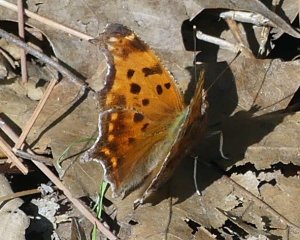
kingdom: Animalia
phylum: Arthropoda
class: Insecta
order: Lepidoptera
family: Nymphalidae
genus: Polygonia
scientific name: Polygonia comma
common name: Eastern Comma
